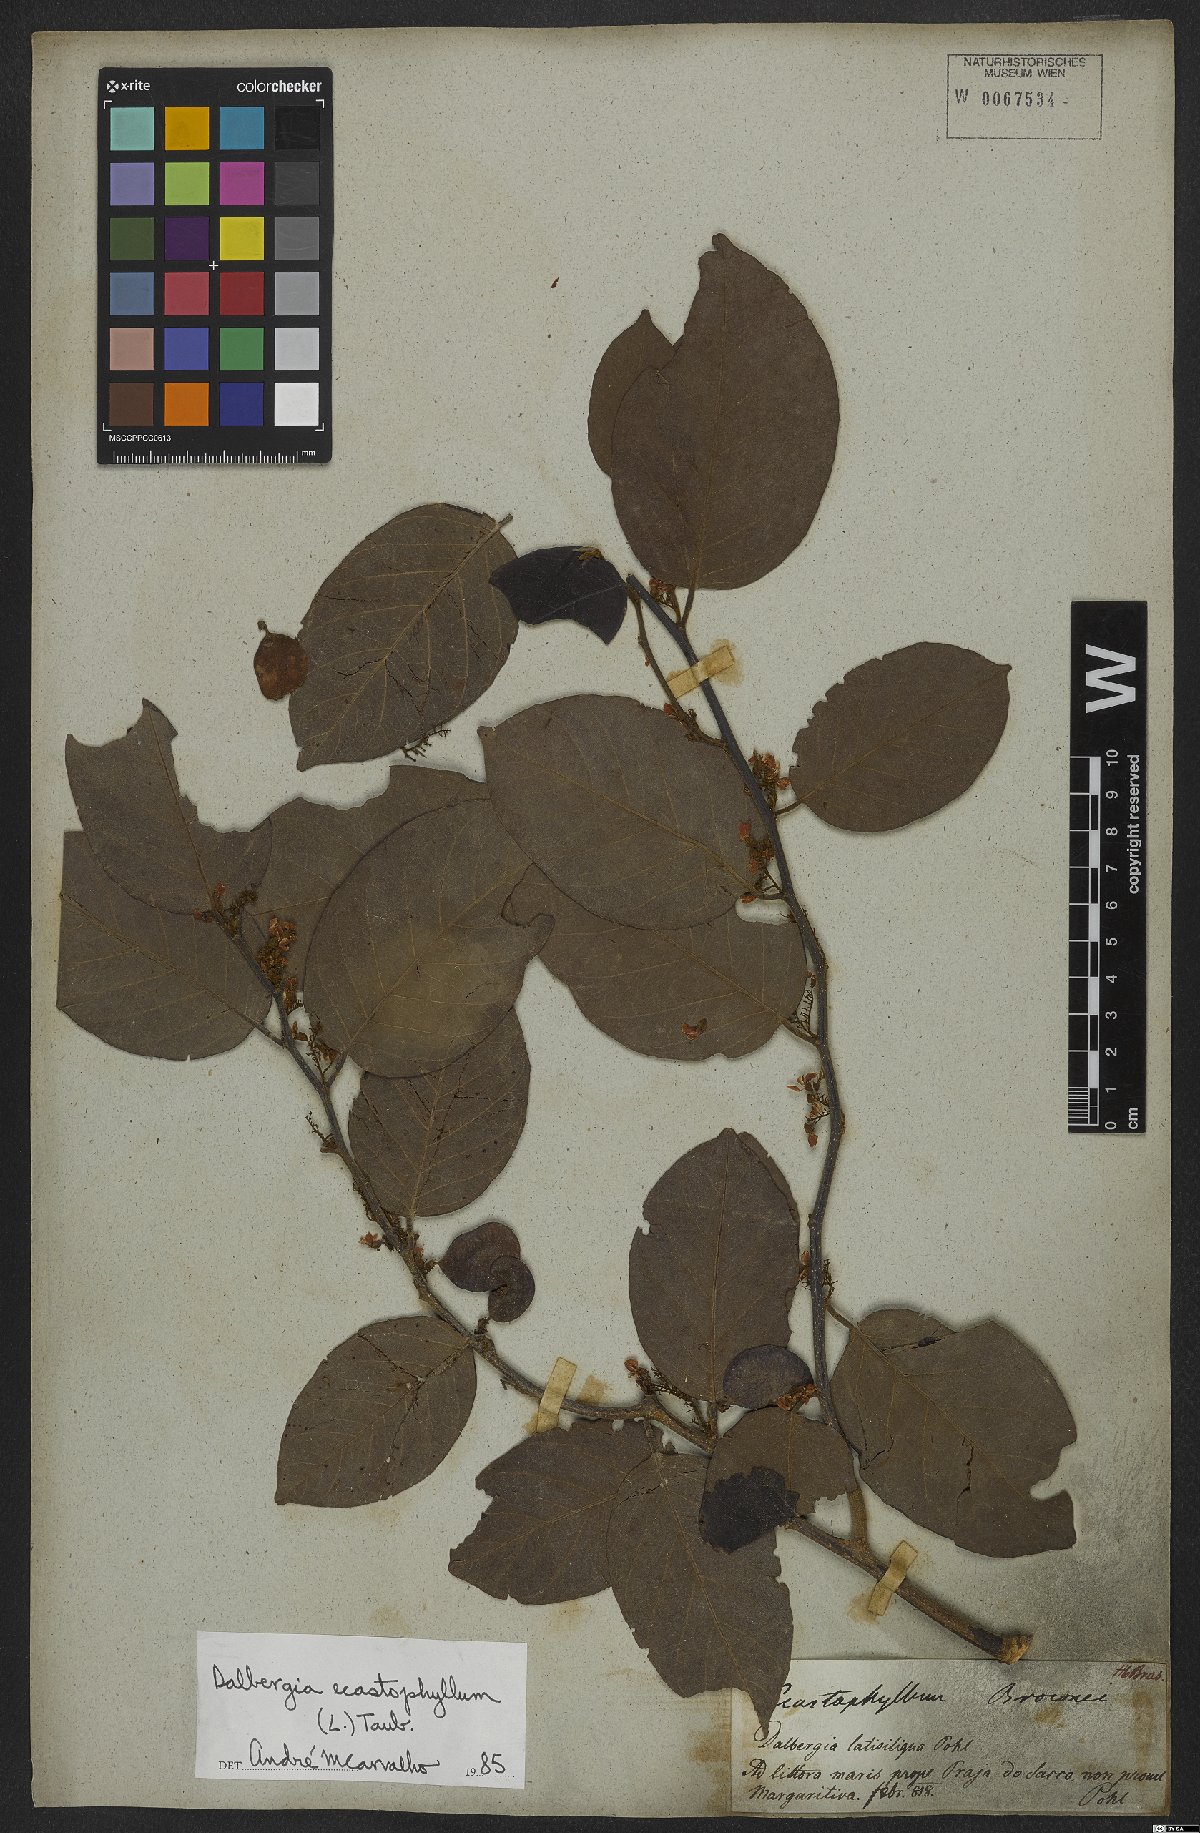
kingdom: Plantae
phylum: Tracheophyta
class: Magnoliopsida
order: Fabales
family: Fabaceae
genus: Dalbergia
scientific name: Dalbergia ecastaphyllum
